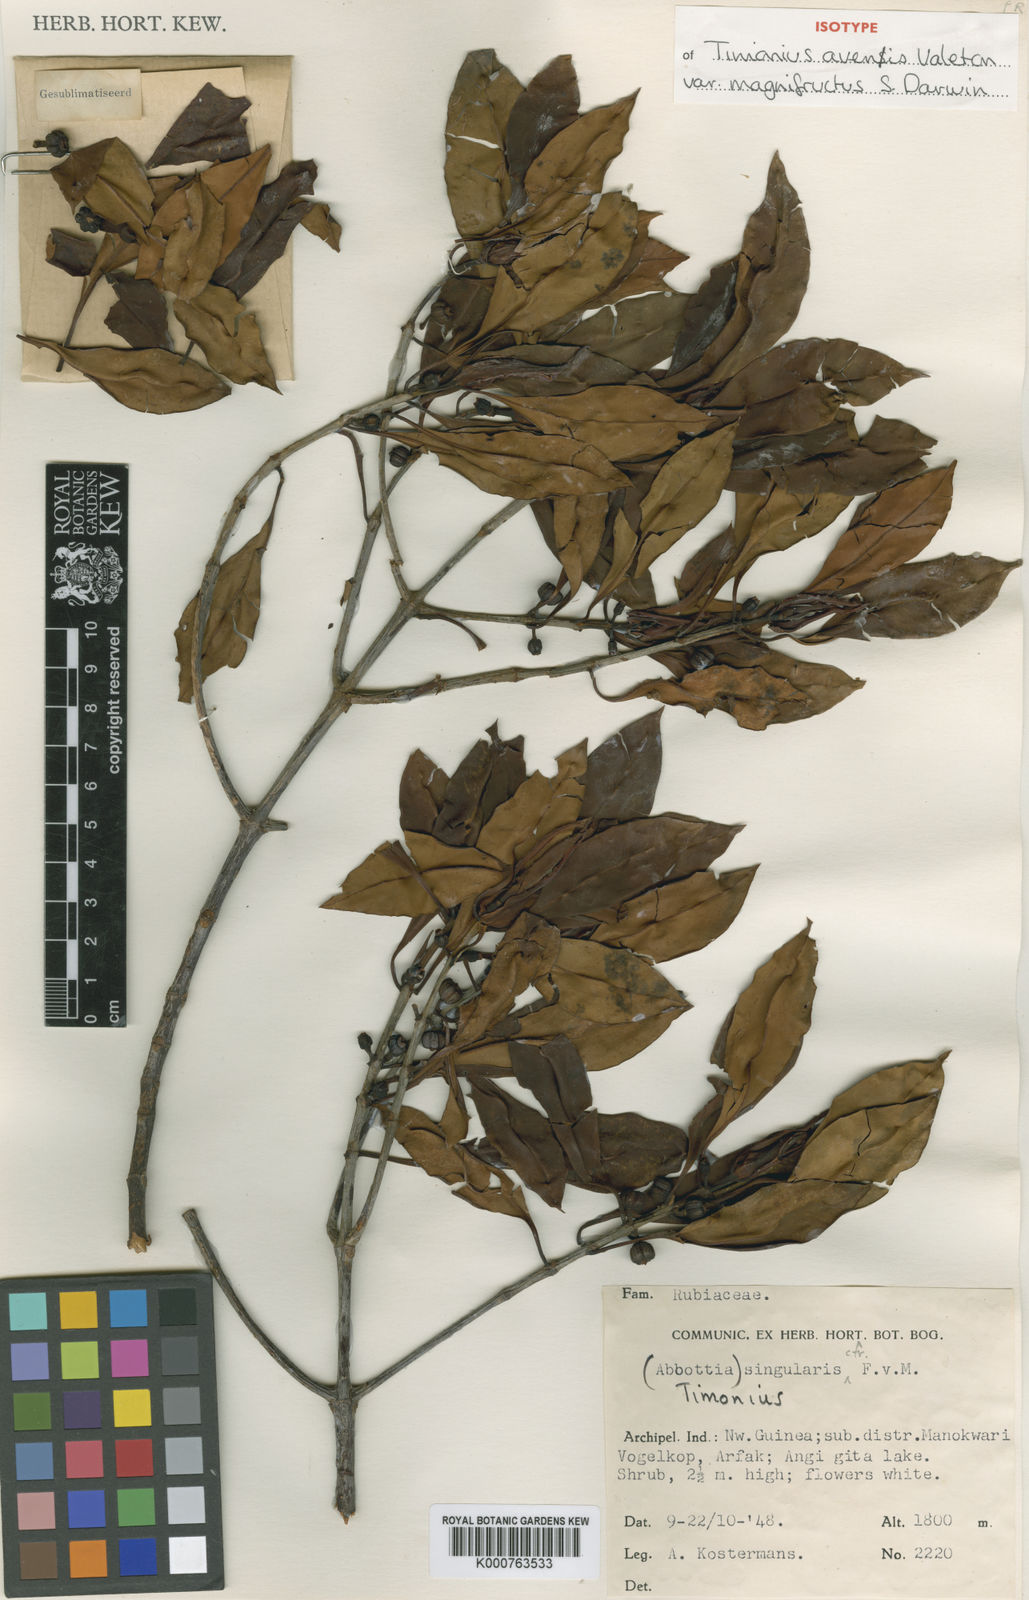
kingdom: Plantae
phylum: Tracheophyta
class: Magnoliopsida
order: Gentianales
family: Rubiaceae
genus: Timonius
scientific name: Timonius avenis
